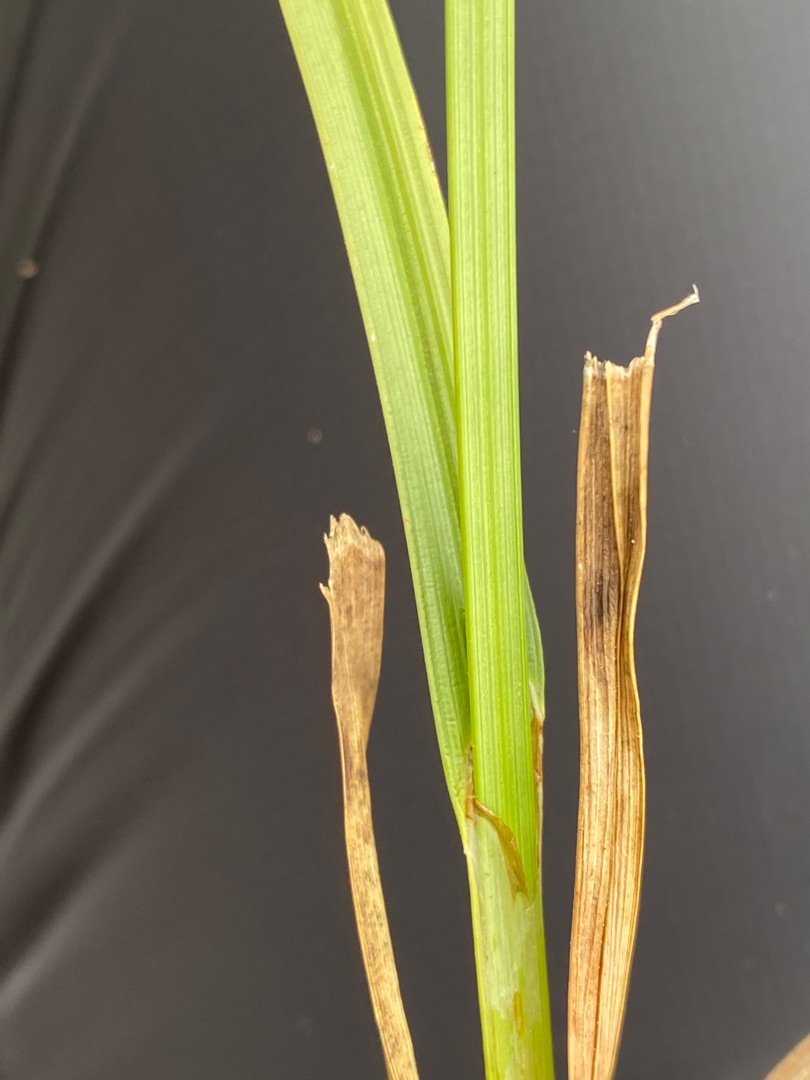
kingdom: Plantae
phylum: Tracheophyta
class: Liliopsida
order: Poales
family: Cyperaceae
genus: Carex
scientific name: Carex otrubae
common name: Sylt-star
